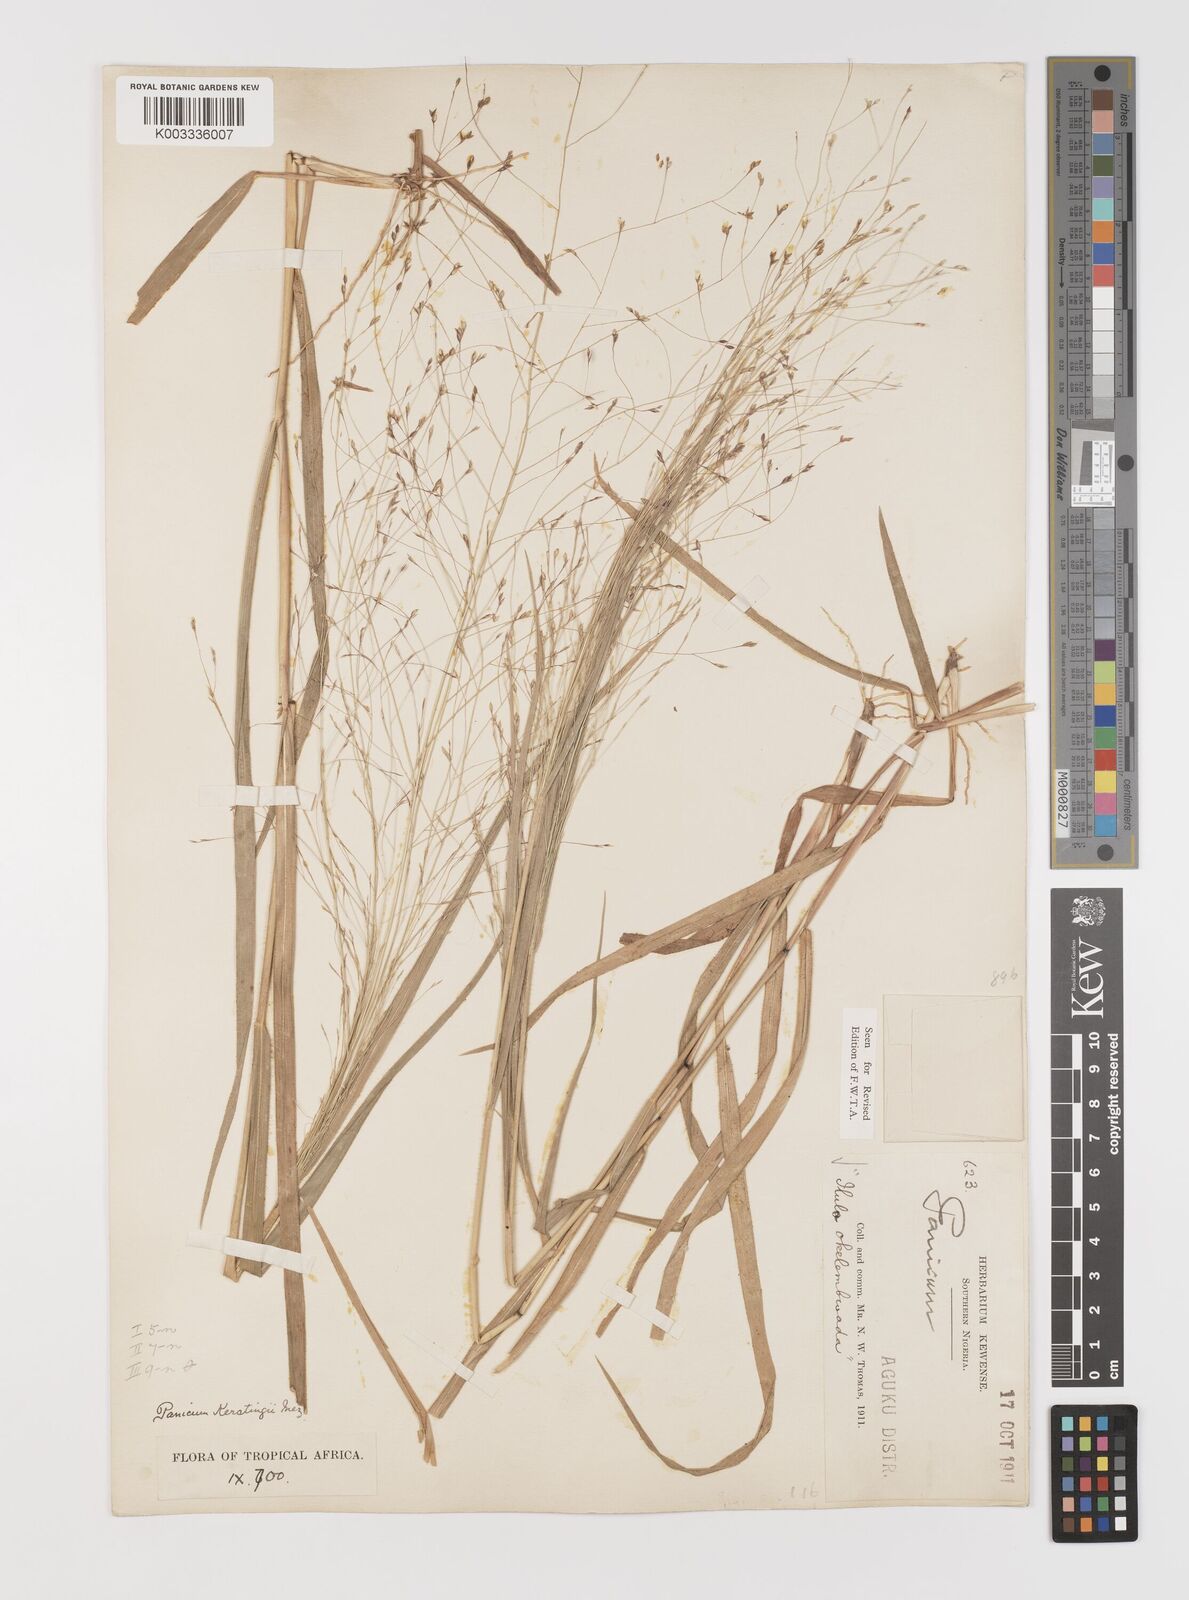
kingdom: Plantae
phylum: Tracheophyta
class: Liliopsida
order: Poales
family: Poaceae
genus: Panicum
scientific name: Panicum pansum
